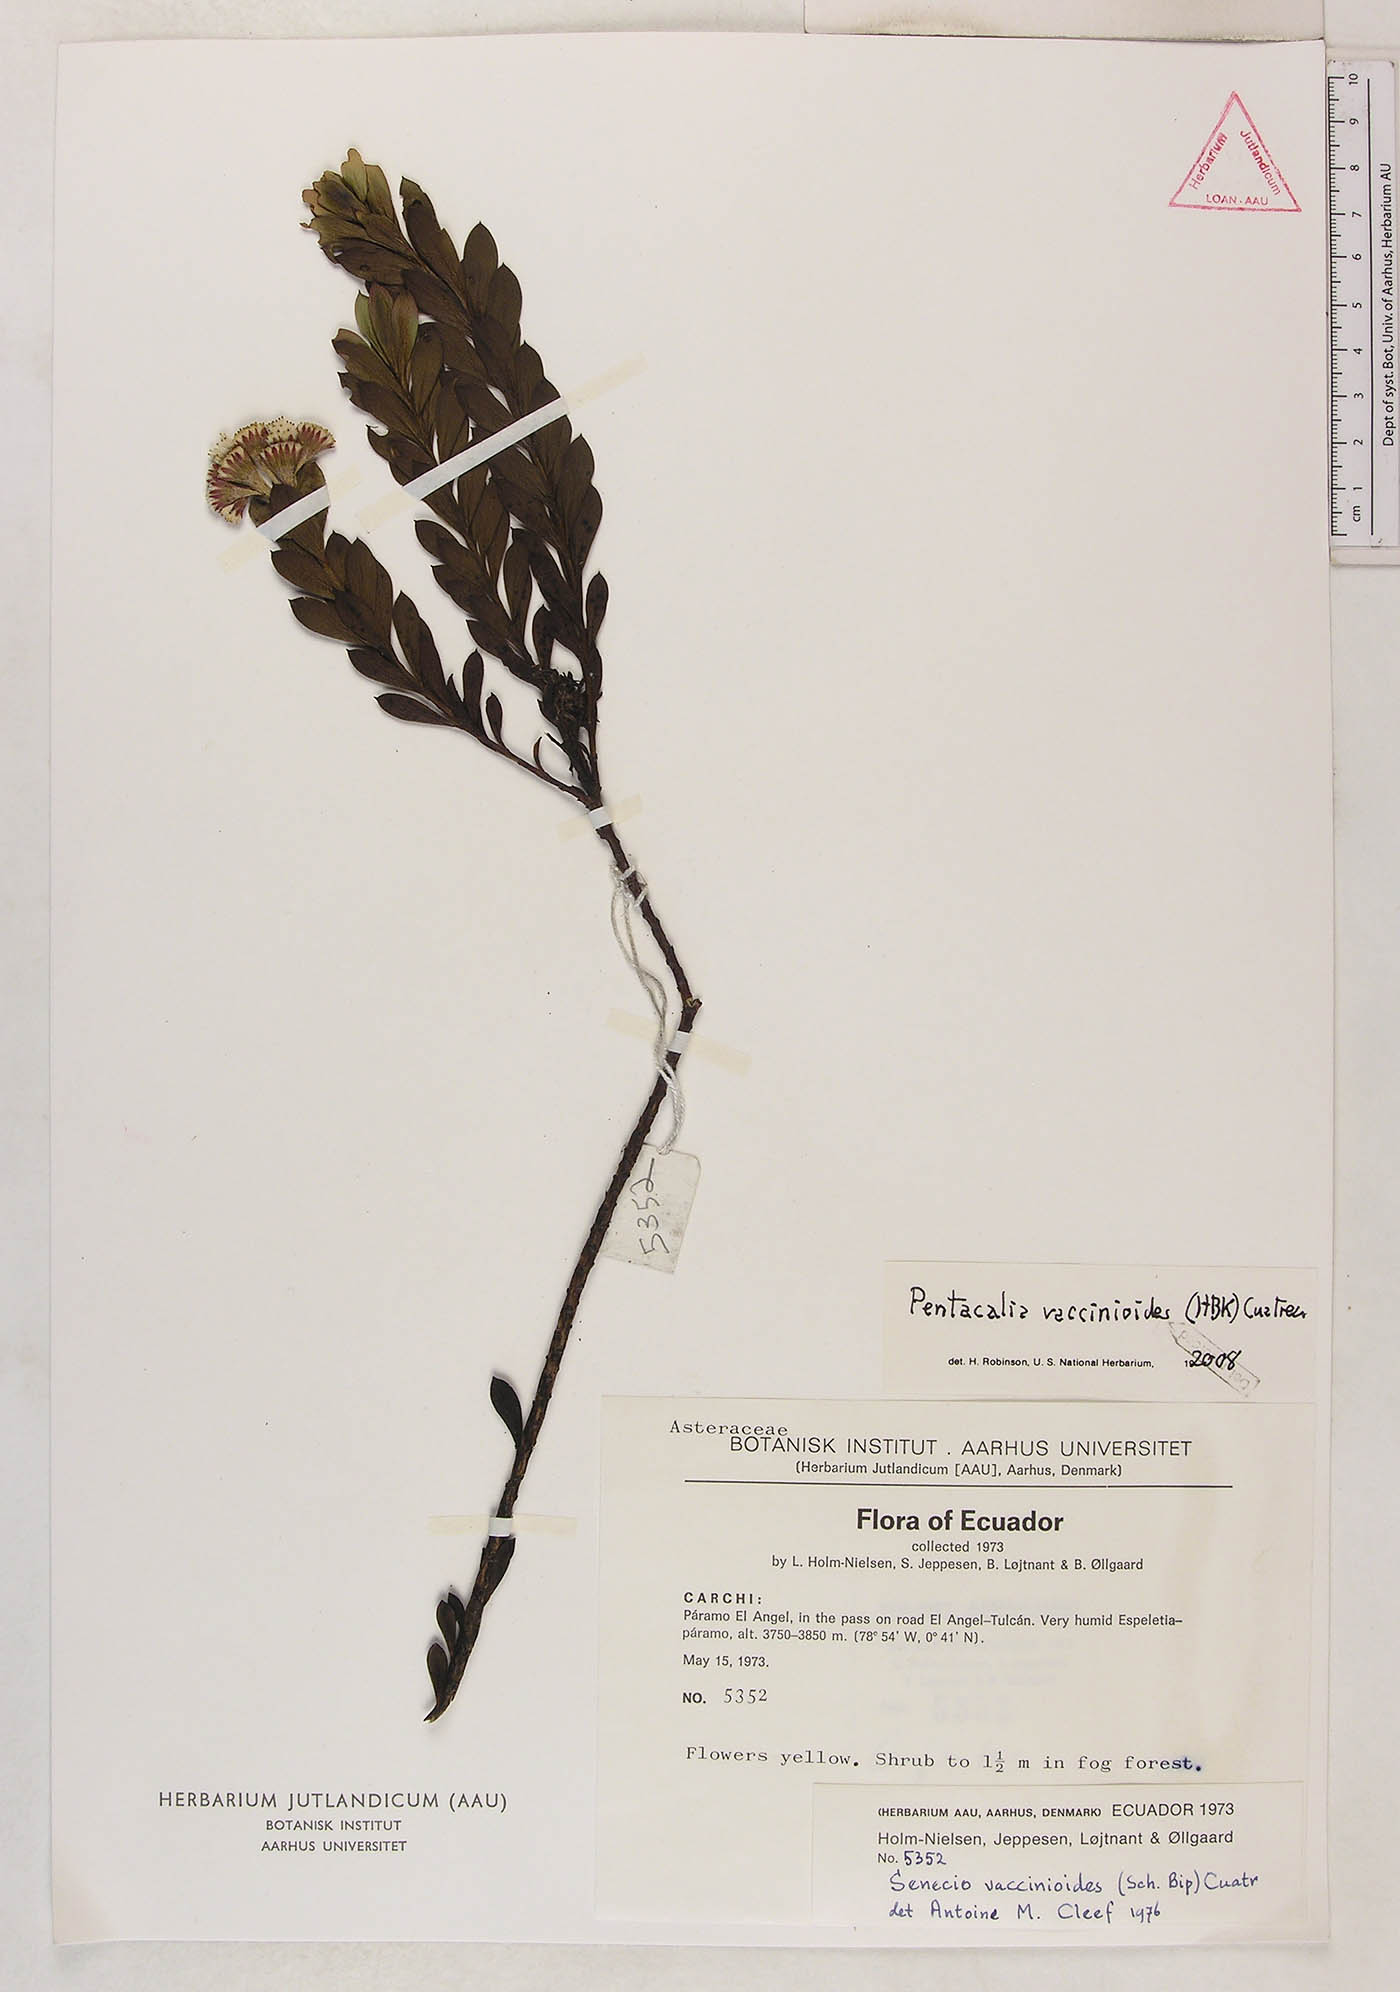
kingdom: Plantae
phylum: Tracheophyta
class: Magnoliopsida
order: Asterales
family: Asteraceae
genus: Monticalia
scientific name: Monticalia vaccinioides
